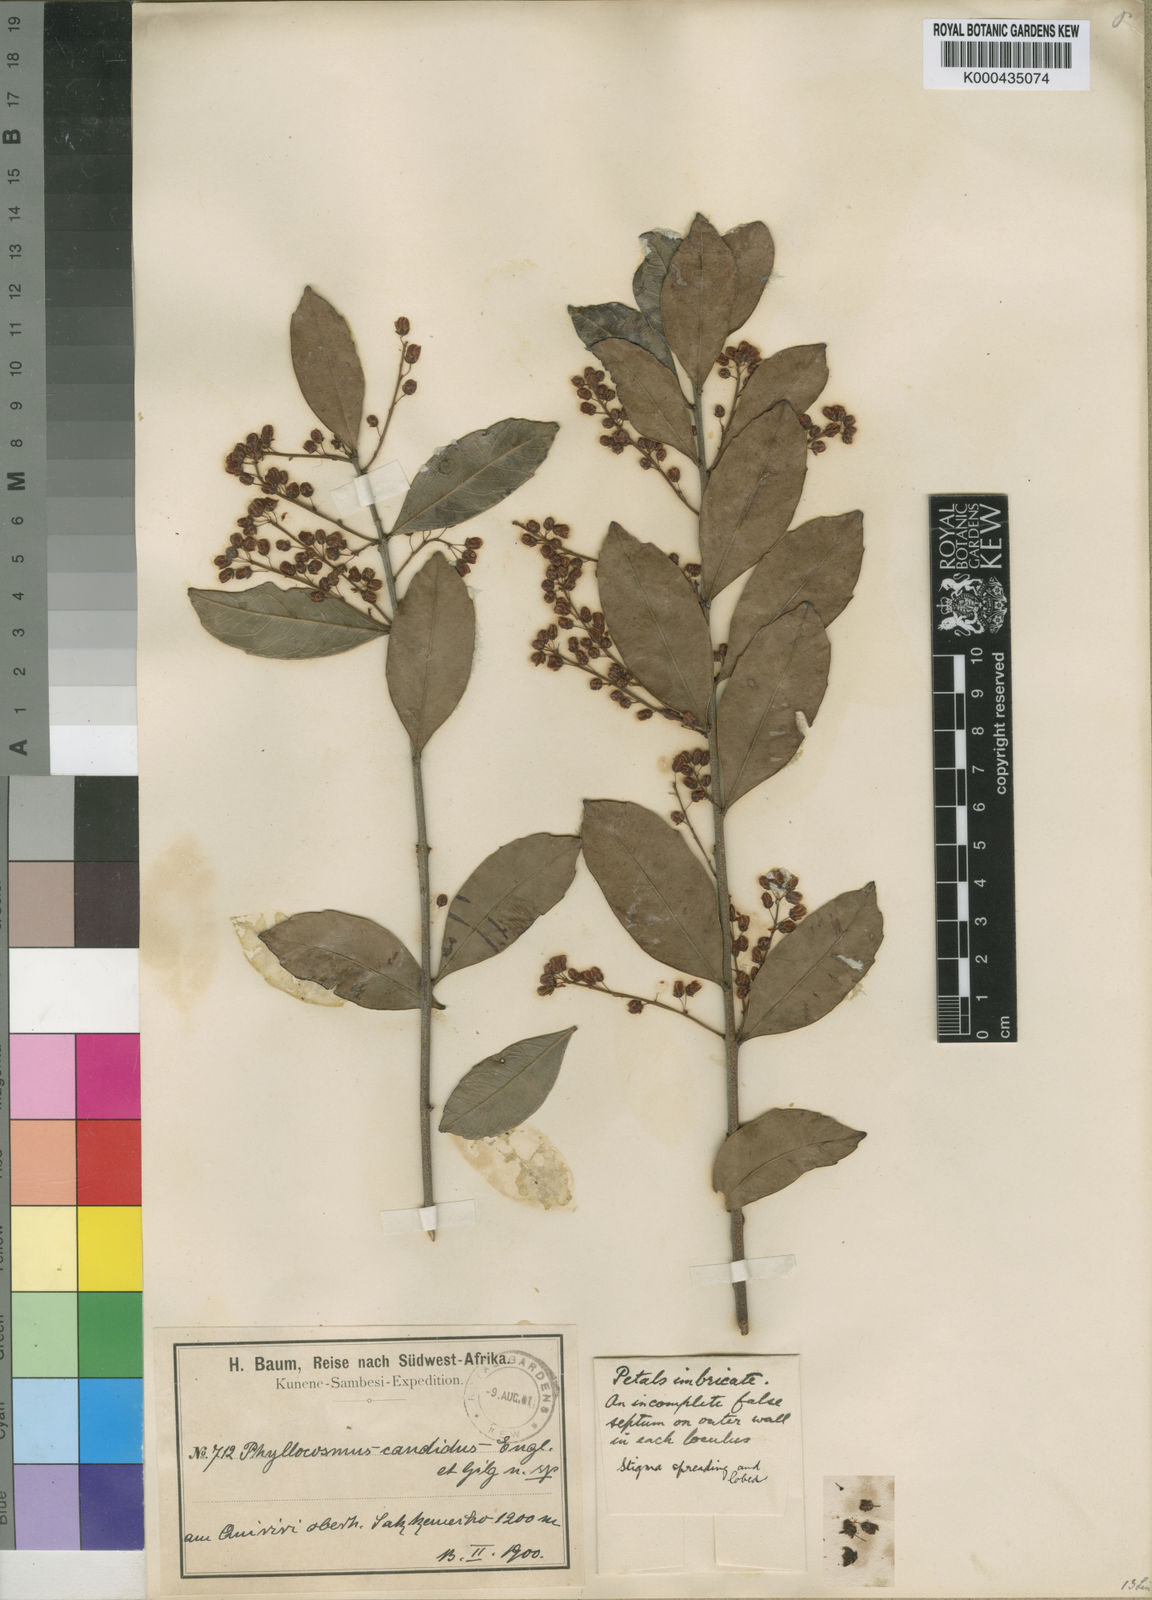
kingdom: Plantae
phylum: Tracheophyta
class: Magnoliopsida
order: Malpighiales
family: Ixonanthaceae
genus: Phyllocosmus
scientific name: Phyllocosmus lemaireanus
